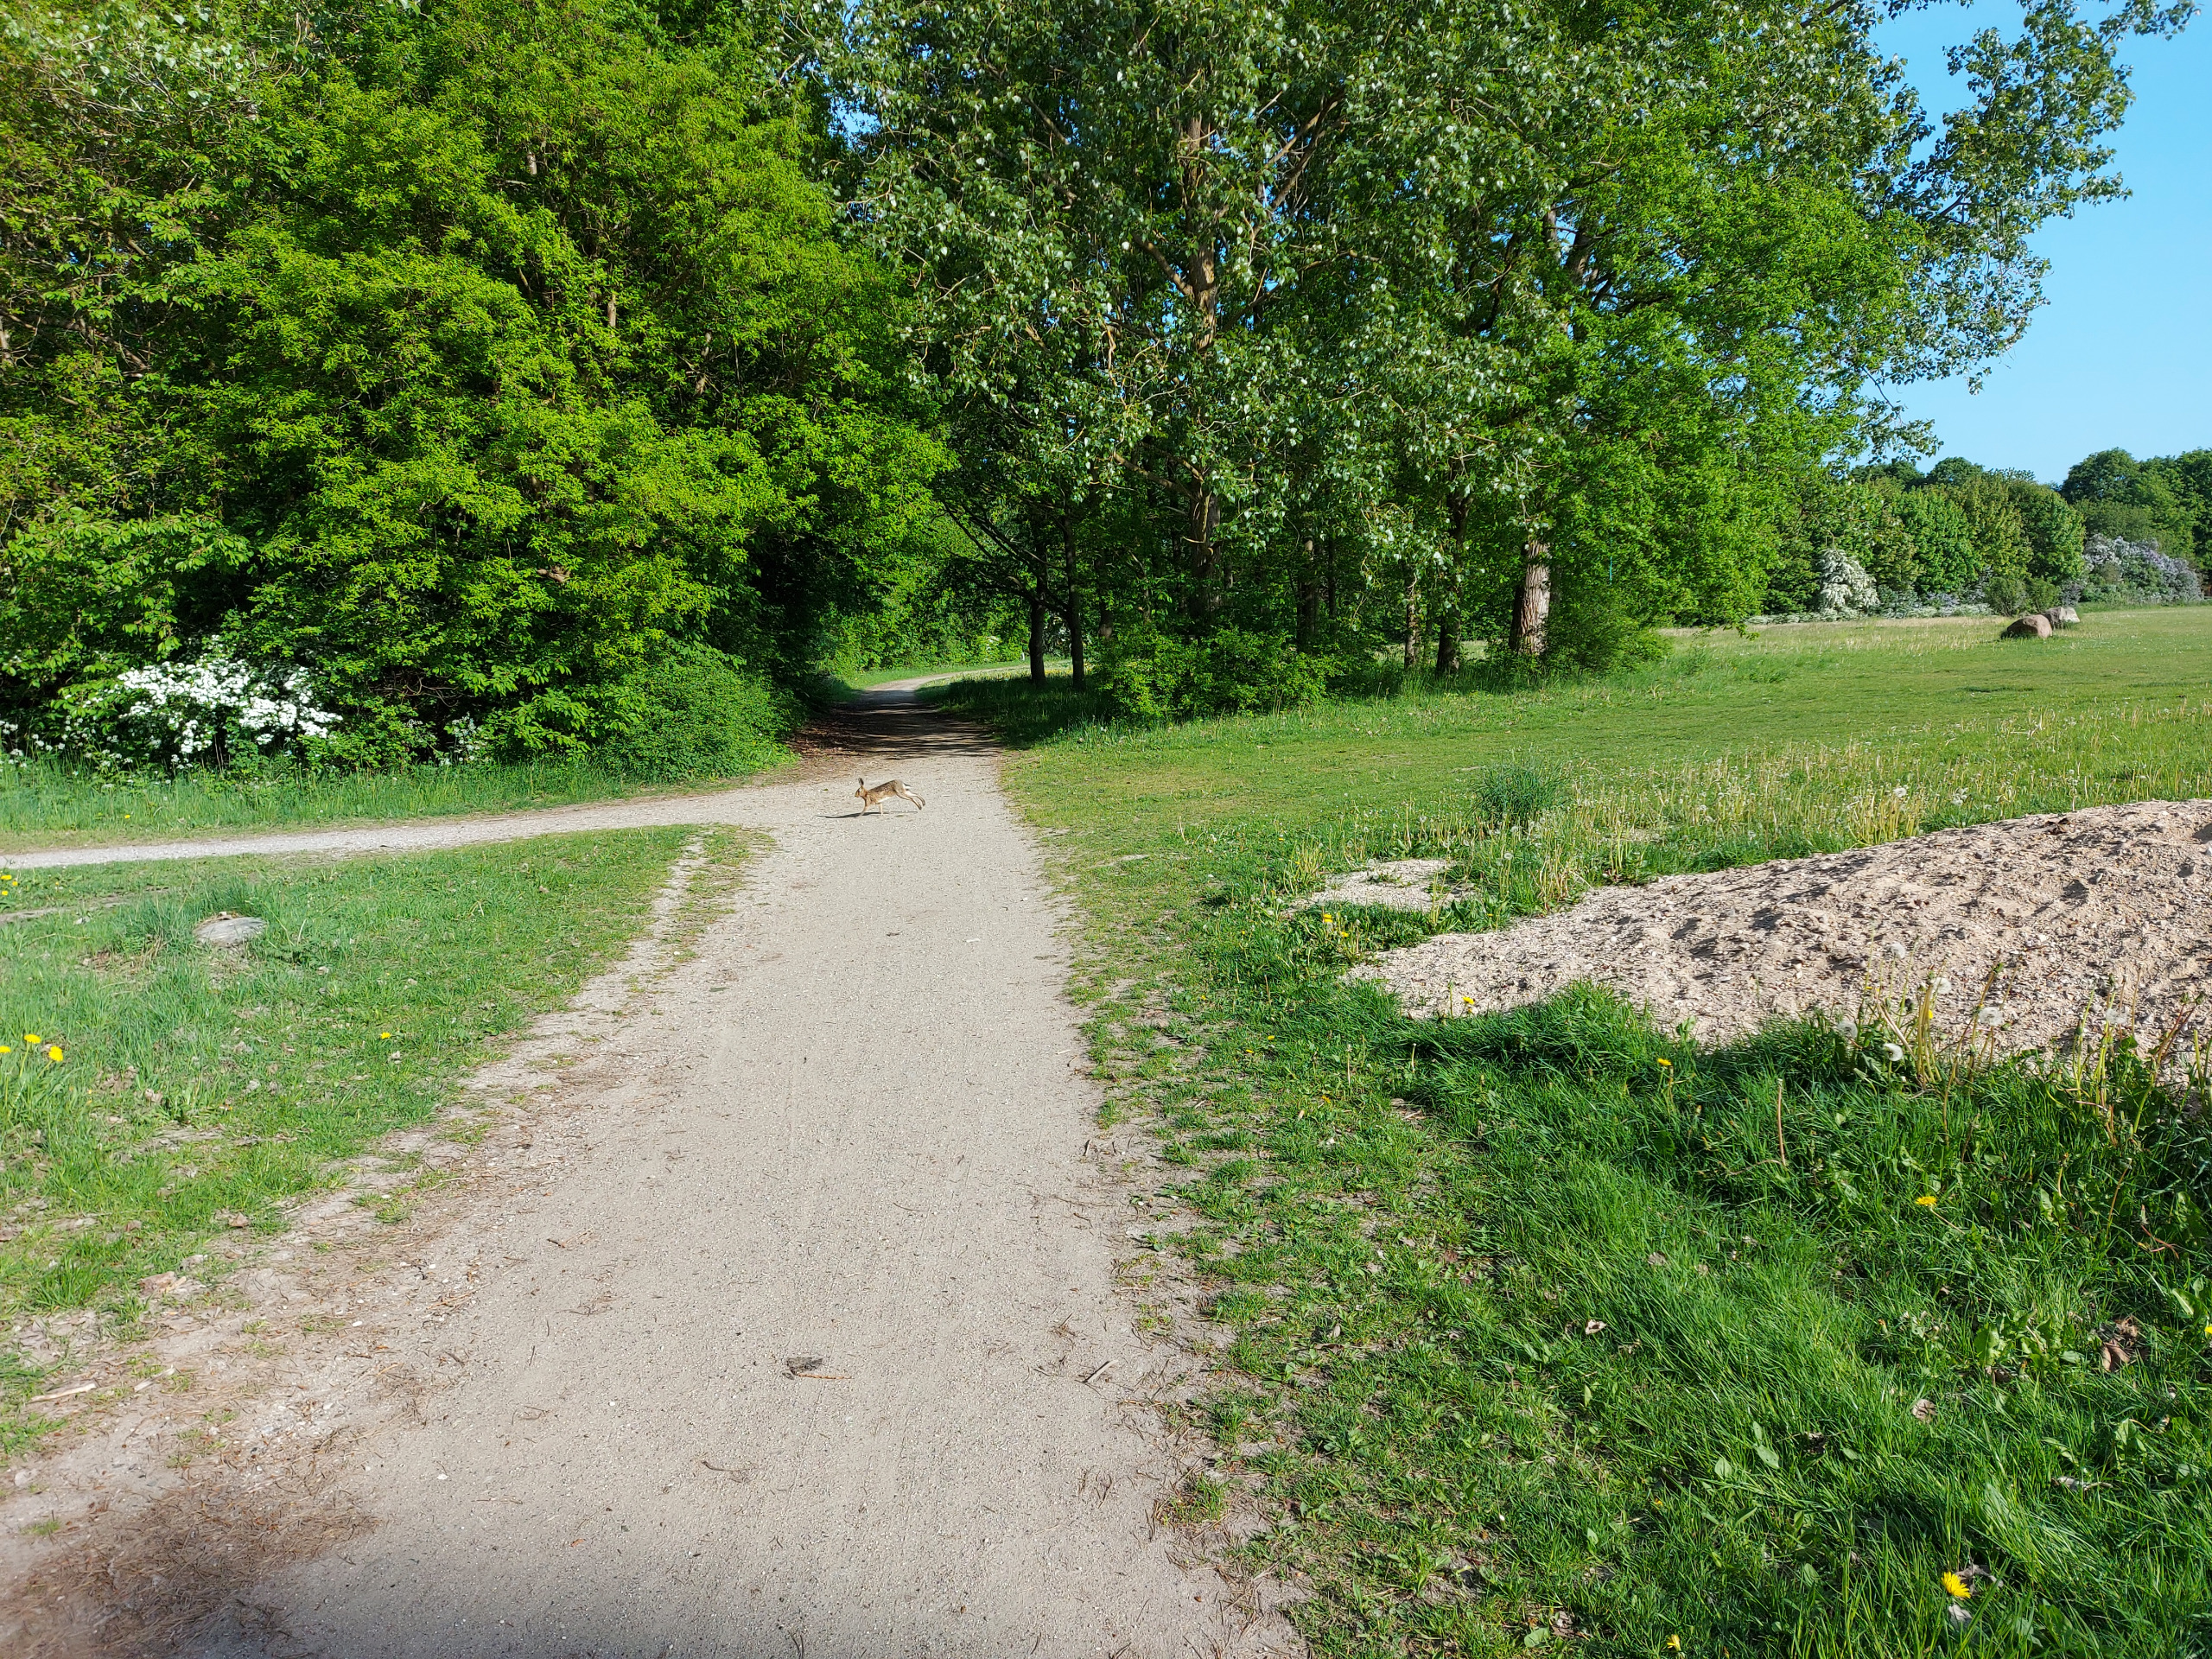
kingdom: Animalia
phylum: Chordata
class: Mammalia
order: Lagomorpha
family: Leporidae
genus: Lepus
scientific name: Lepus europaeus
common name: Hare
